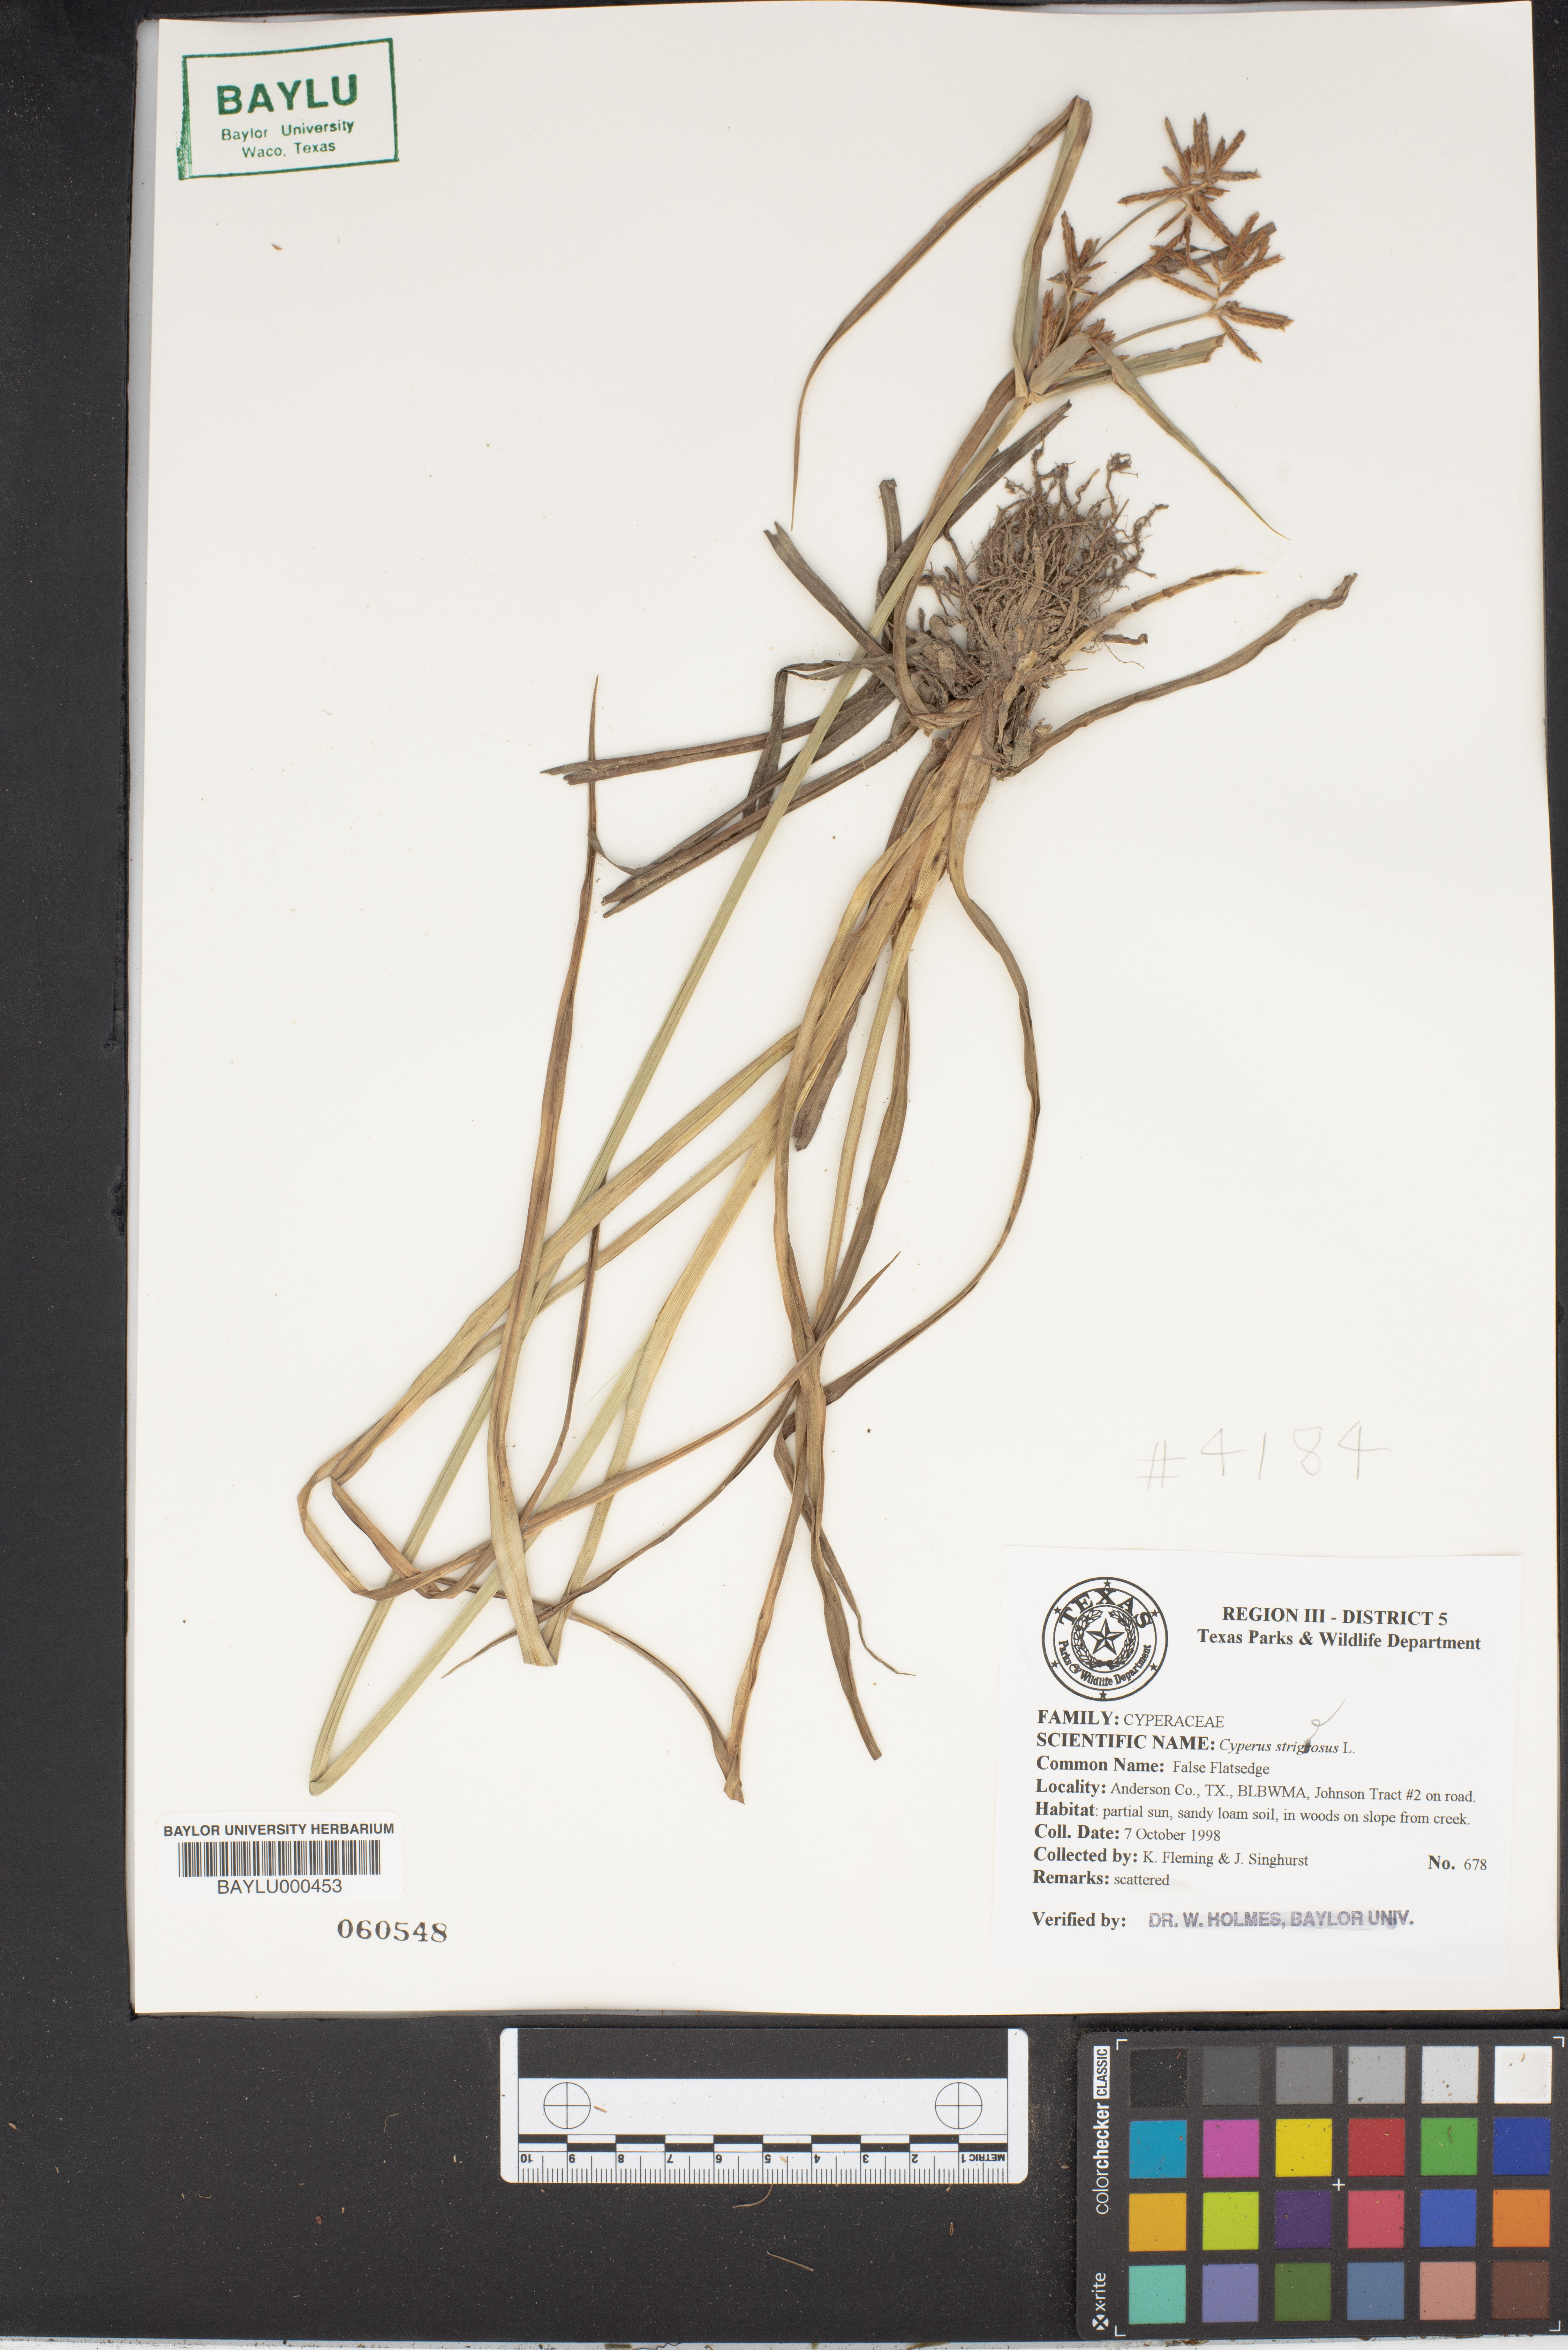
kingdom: Plantae
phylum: Tracheophyta
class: Liliopsida
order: Poales
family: Cyperaceae
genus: Cyperus
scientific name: Cyperus strigosus
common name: False nutsedge
